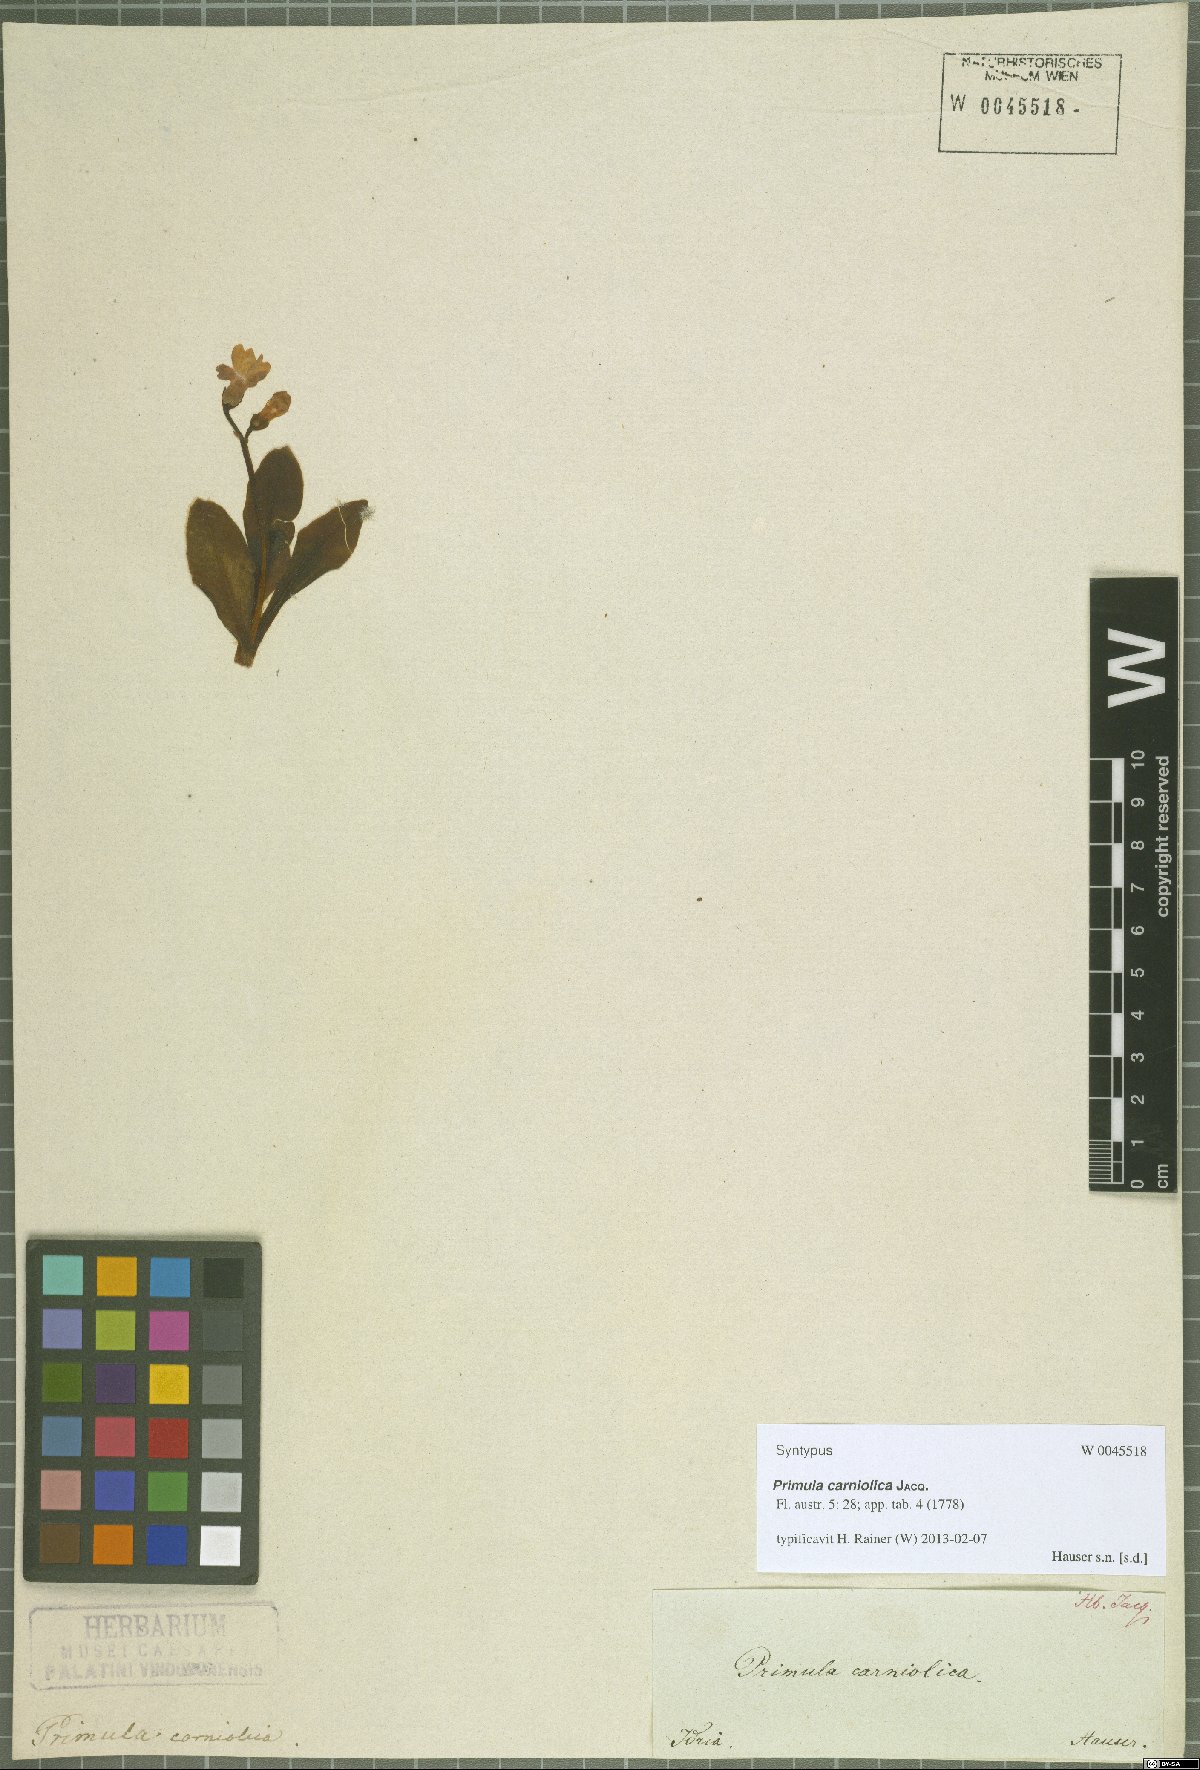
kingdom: Plantae
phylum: Tracheophyta
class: Magnoliopsida
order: Ericales
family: Primulaceae
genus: Primula
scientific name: Primula carniolica
